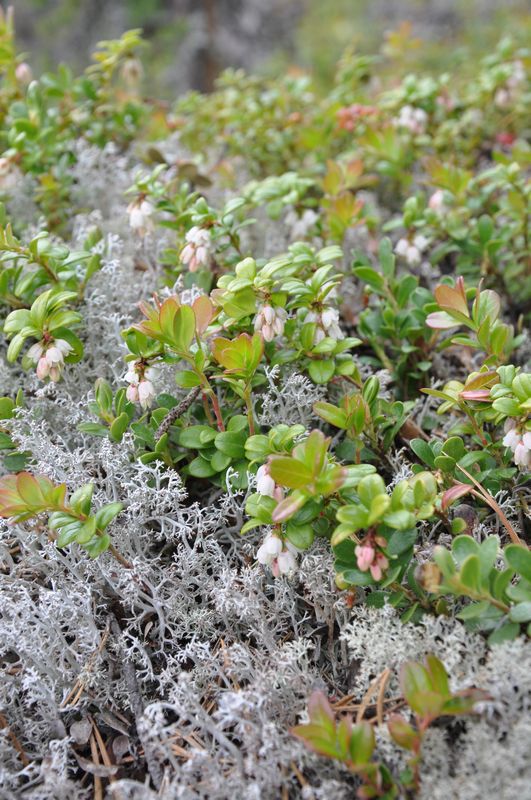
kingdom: Plantae
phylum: Tracheophyta
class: Magnoliopsida
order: Ericales
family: Ericaceae
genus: Vaccinium
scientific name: Vaccinium vitis-idaea
